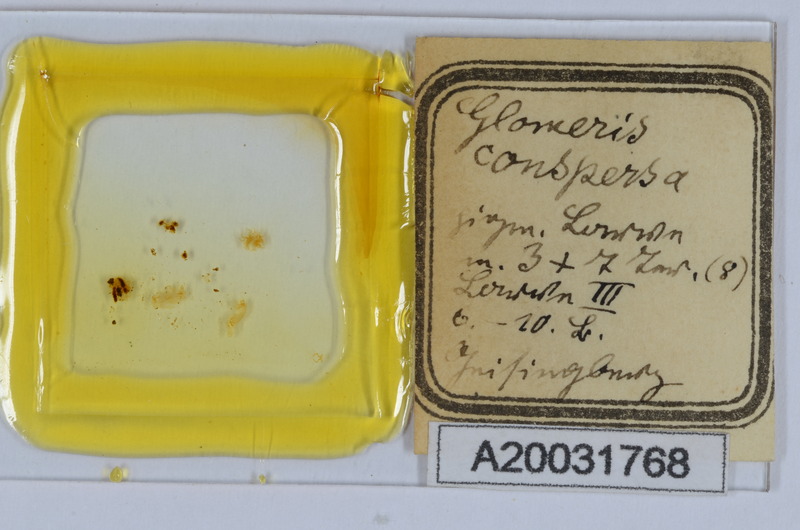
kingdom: Animalia
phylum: Arthropoda
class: Diplopoda
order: Glomerida
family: Glomeridae
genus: Glomeris
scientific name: Glomeris conspersa
